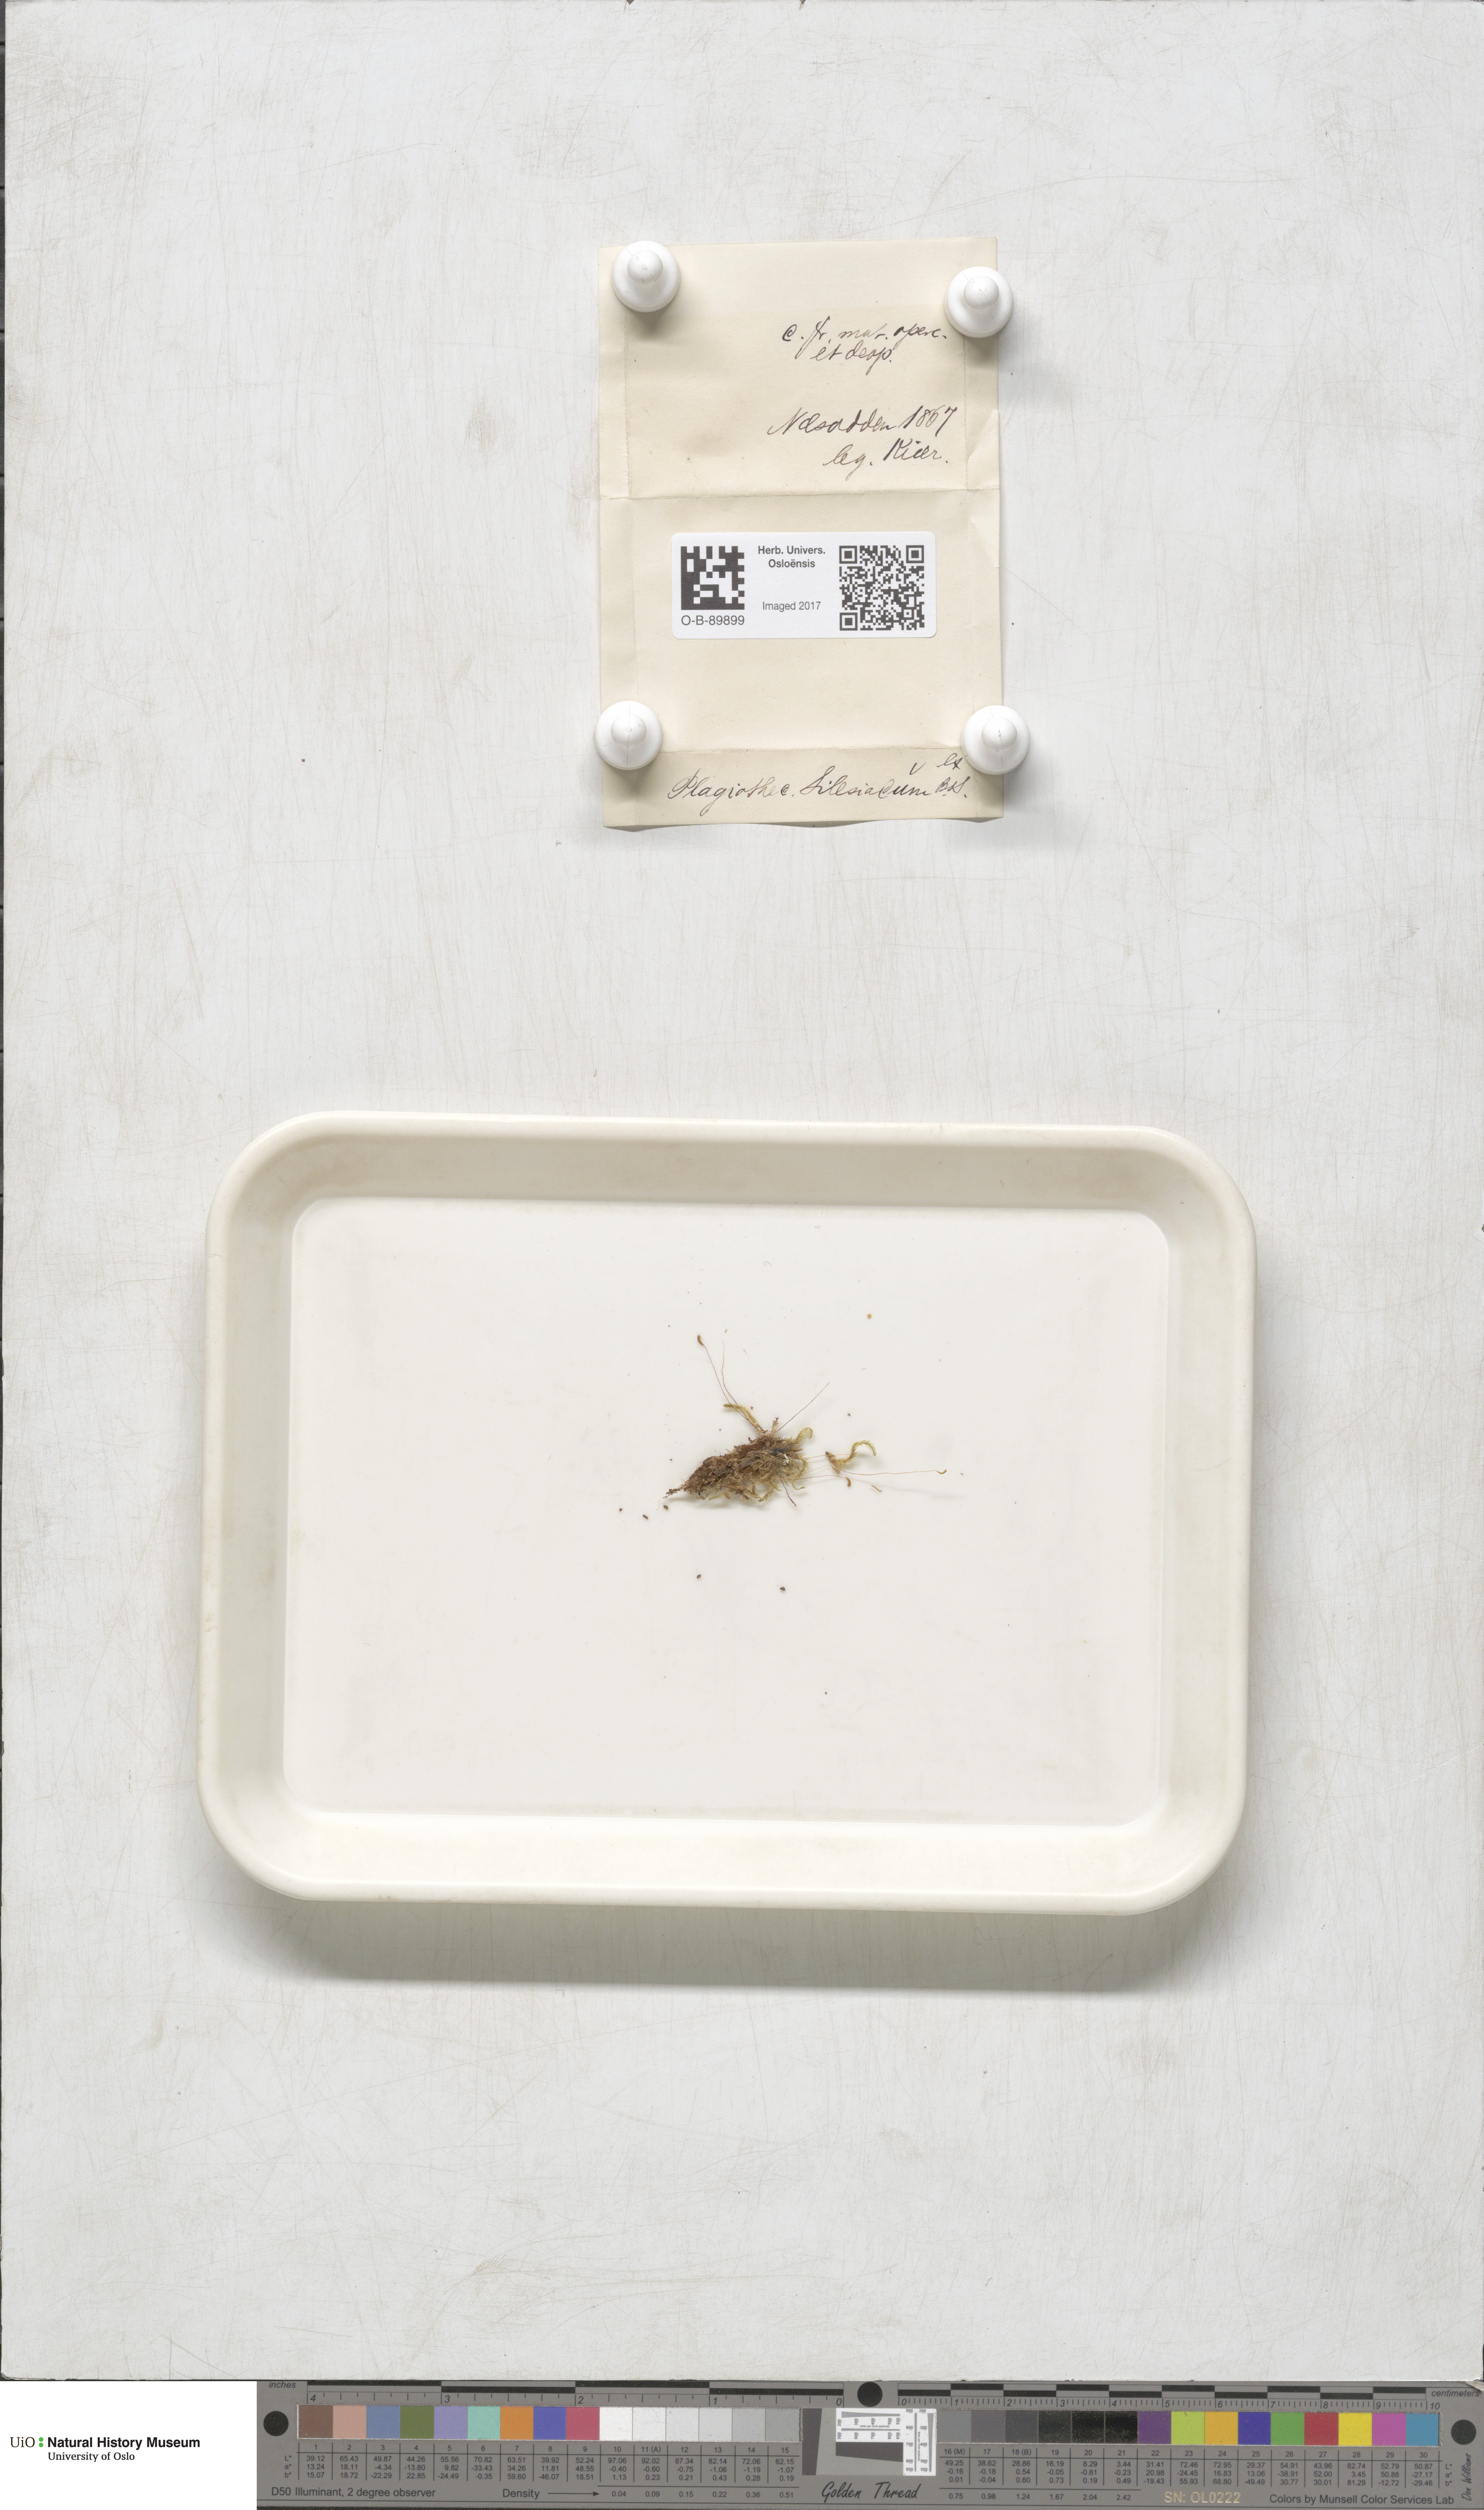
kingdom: Plantae
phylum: Bryophyta
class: Bryopsida
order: Hypnales
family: Plagiotheciaceae
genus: Herzogiella
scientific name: Herzogiella seligeri
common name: Silesian feather-moss
